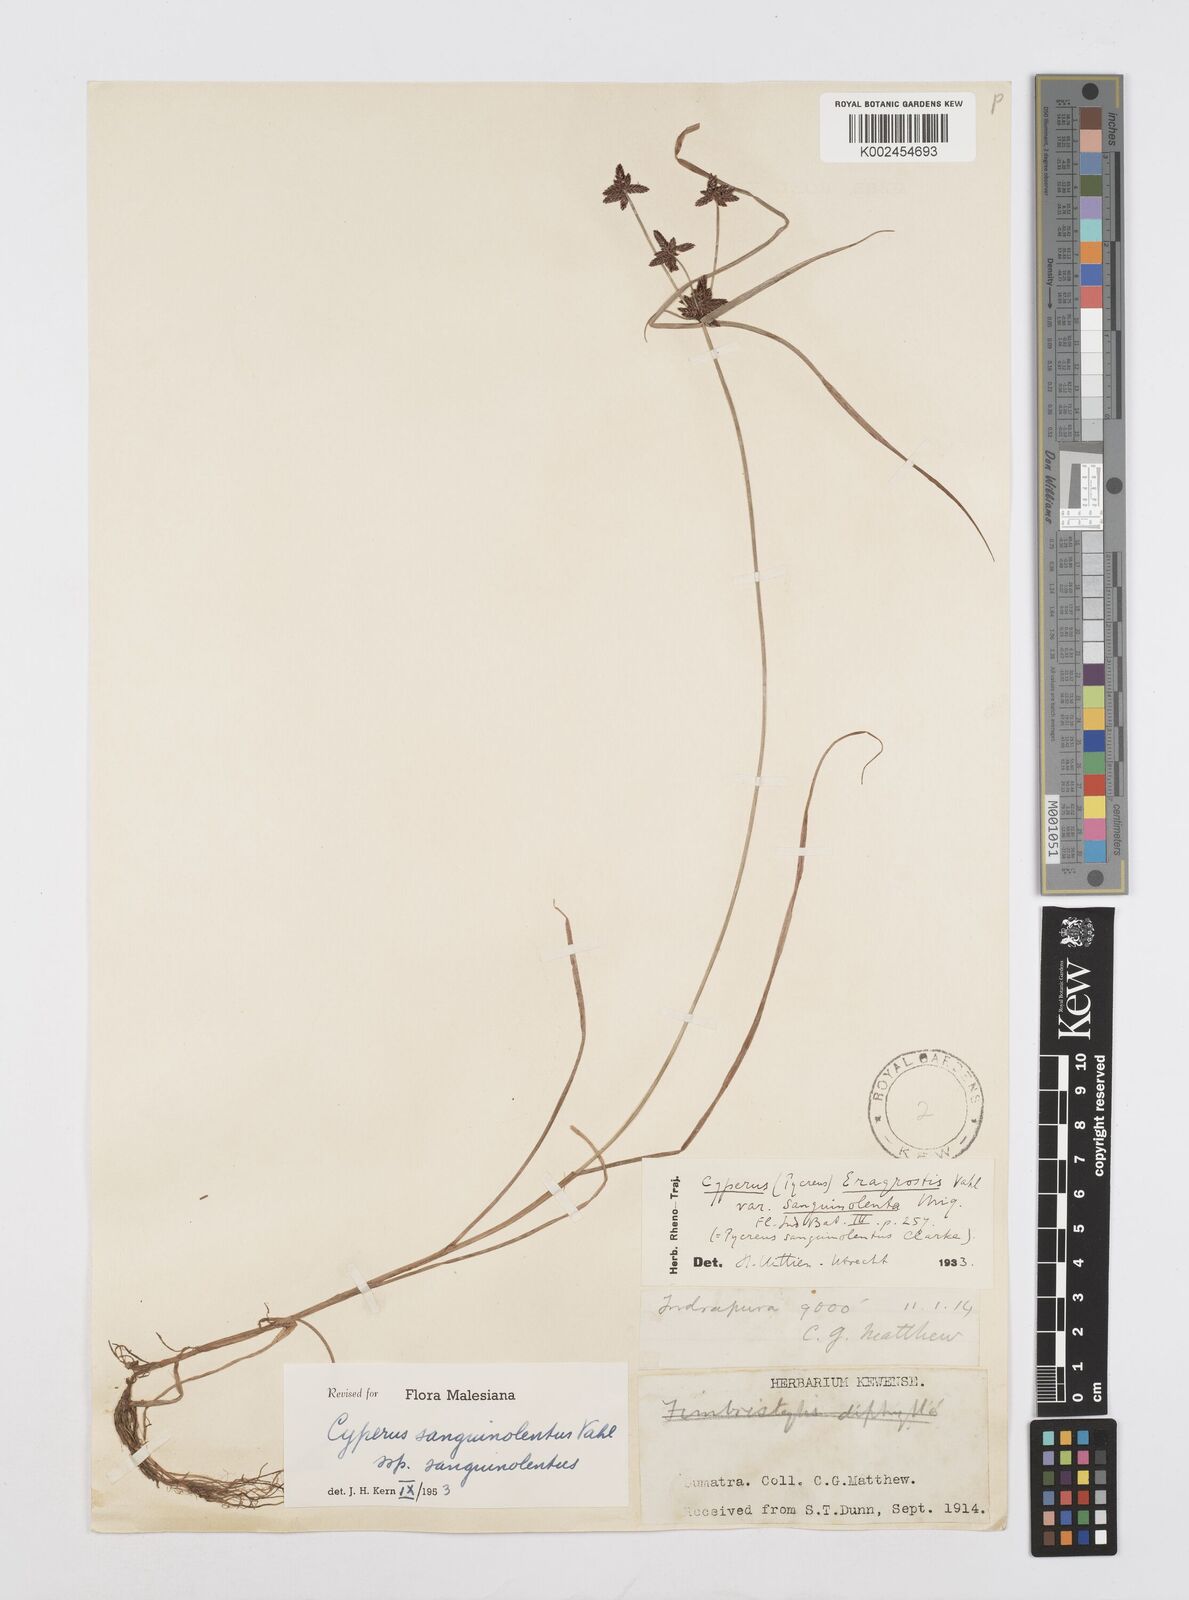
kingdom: Plantae
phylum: Tracheophyta
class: Liliopsida
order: Poales
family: Cyperaceae
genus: Cyperus
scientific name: Cyperus sanguinolentus
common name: Purpleglume flatsedge
